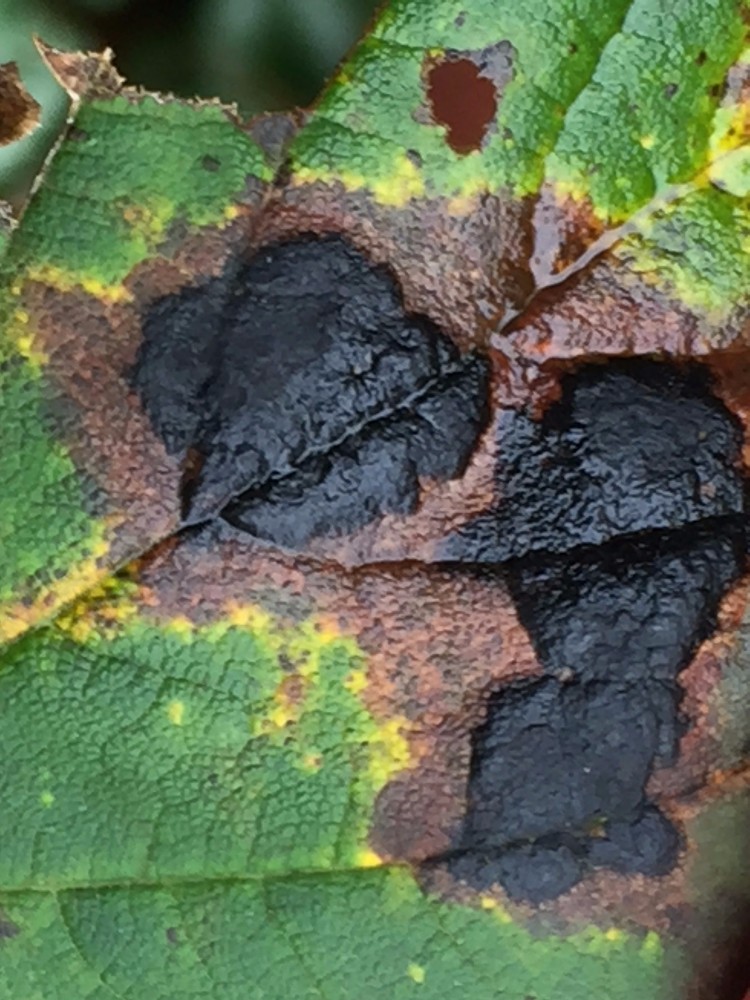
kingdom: Fungi
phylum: Ascomycota
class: Leotiomycetes
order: Rhytismatales
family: Rhytismataceae
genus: Rhytisma
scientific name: Rhytisma acerinum
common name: ahorn-rynkeplet
